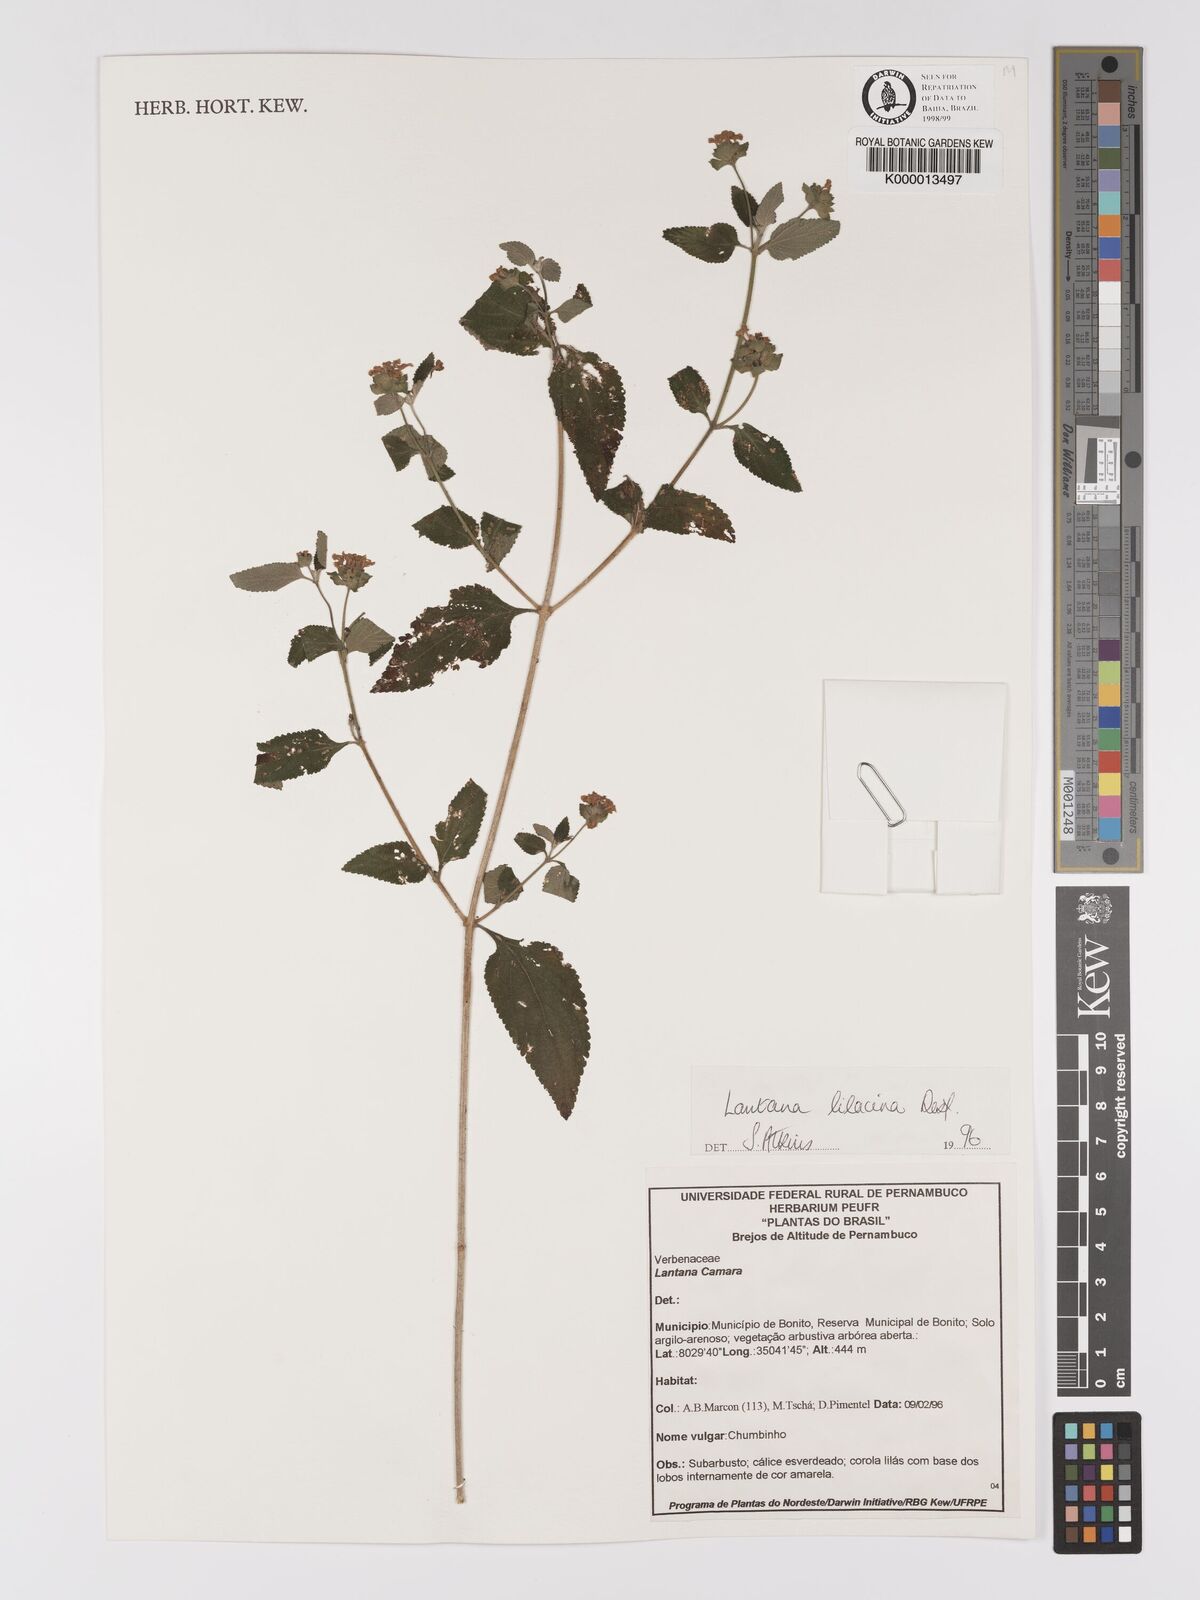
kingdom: Plantae
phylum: Tracheophyta
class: Magnoliopsida
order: Lamiales
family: Verbenaceae
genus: Lantana
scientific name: Lantana fucata
